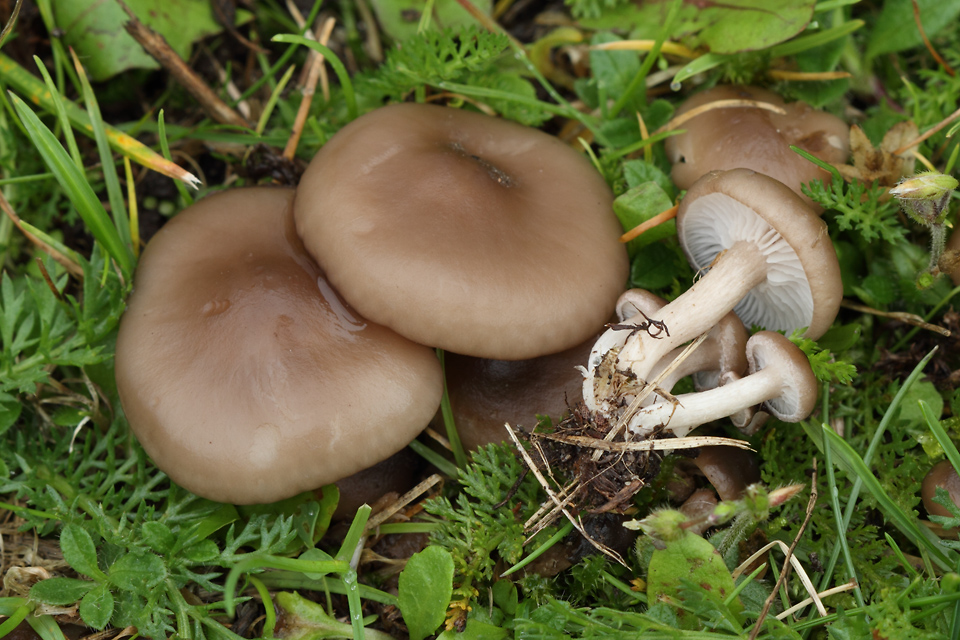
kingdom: Fungi
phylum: Basidiomycota
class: Agaricomycetes
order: Agaricales
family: Tricholomataceae
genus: Lepista
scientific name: Lepista sordida
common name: spinkel hekseringshat
